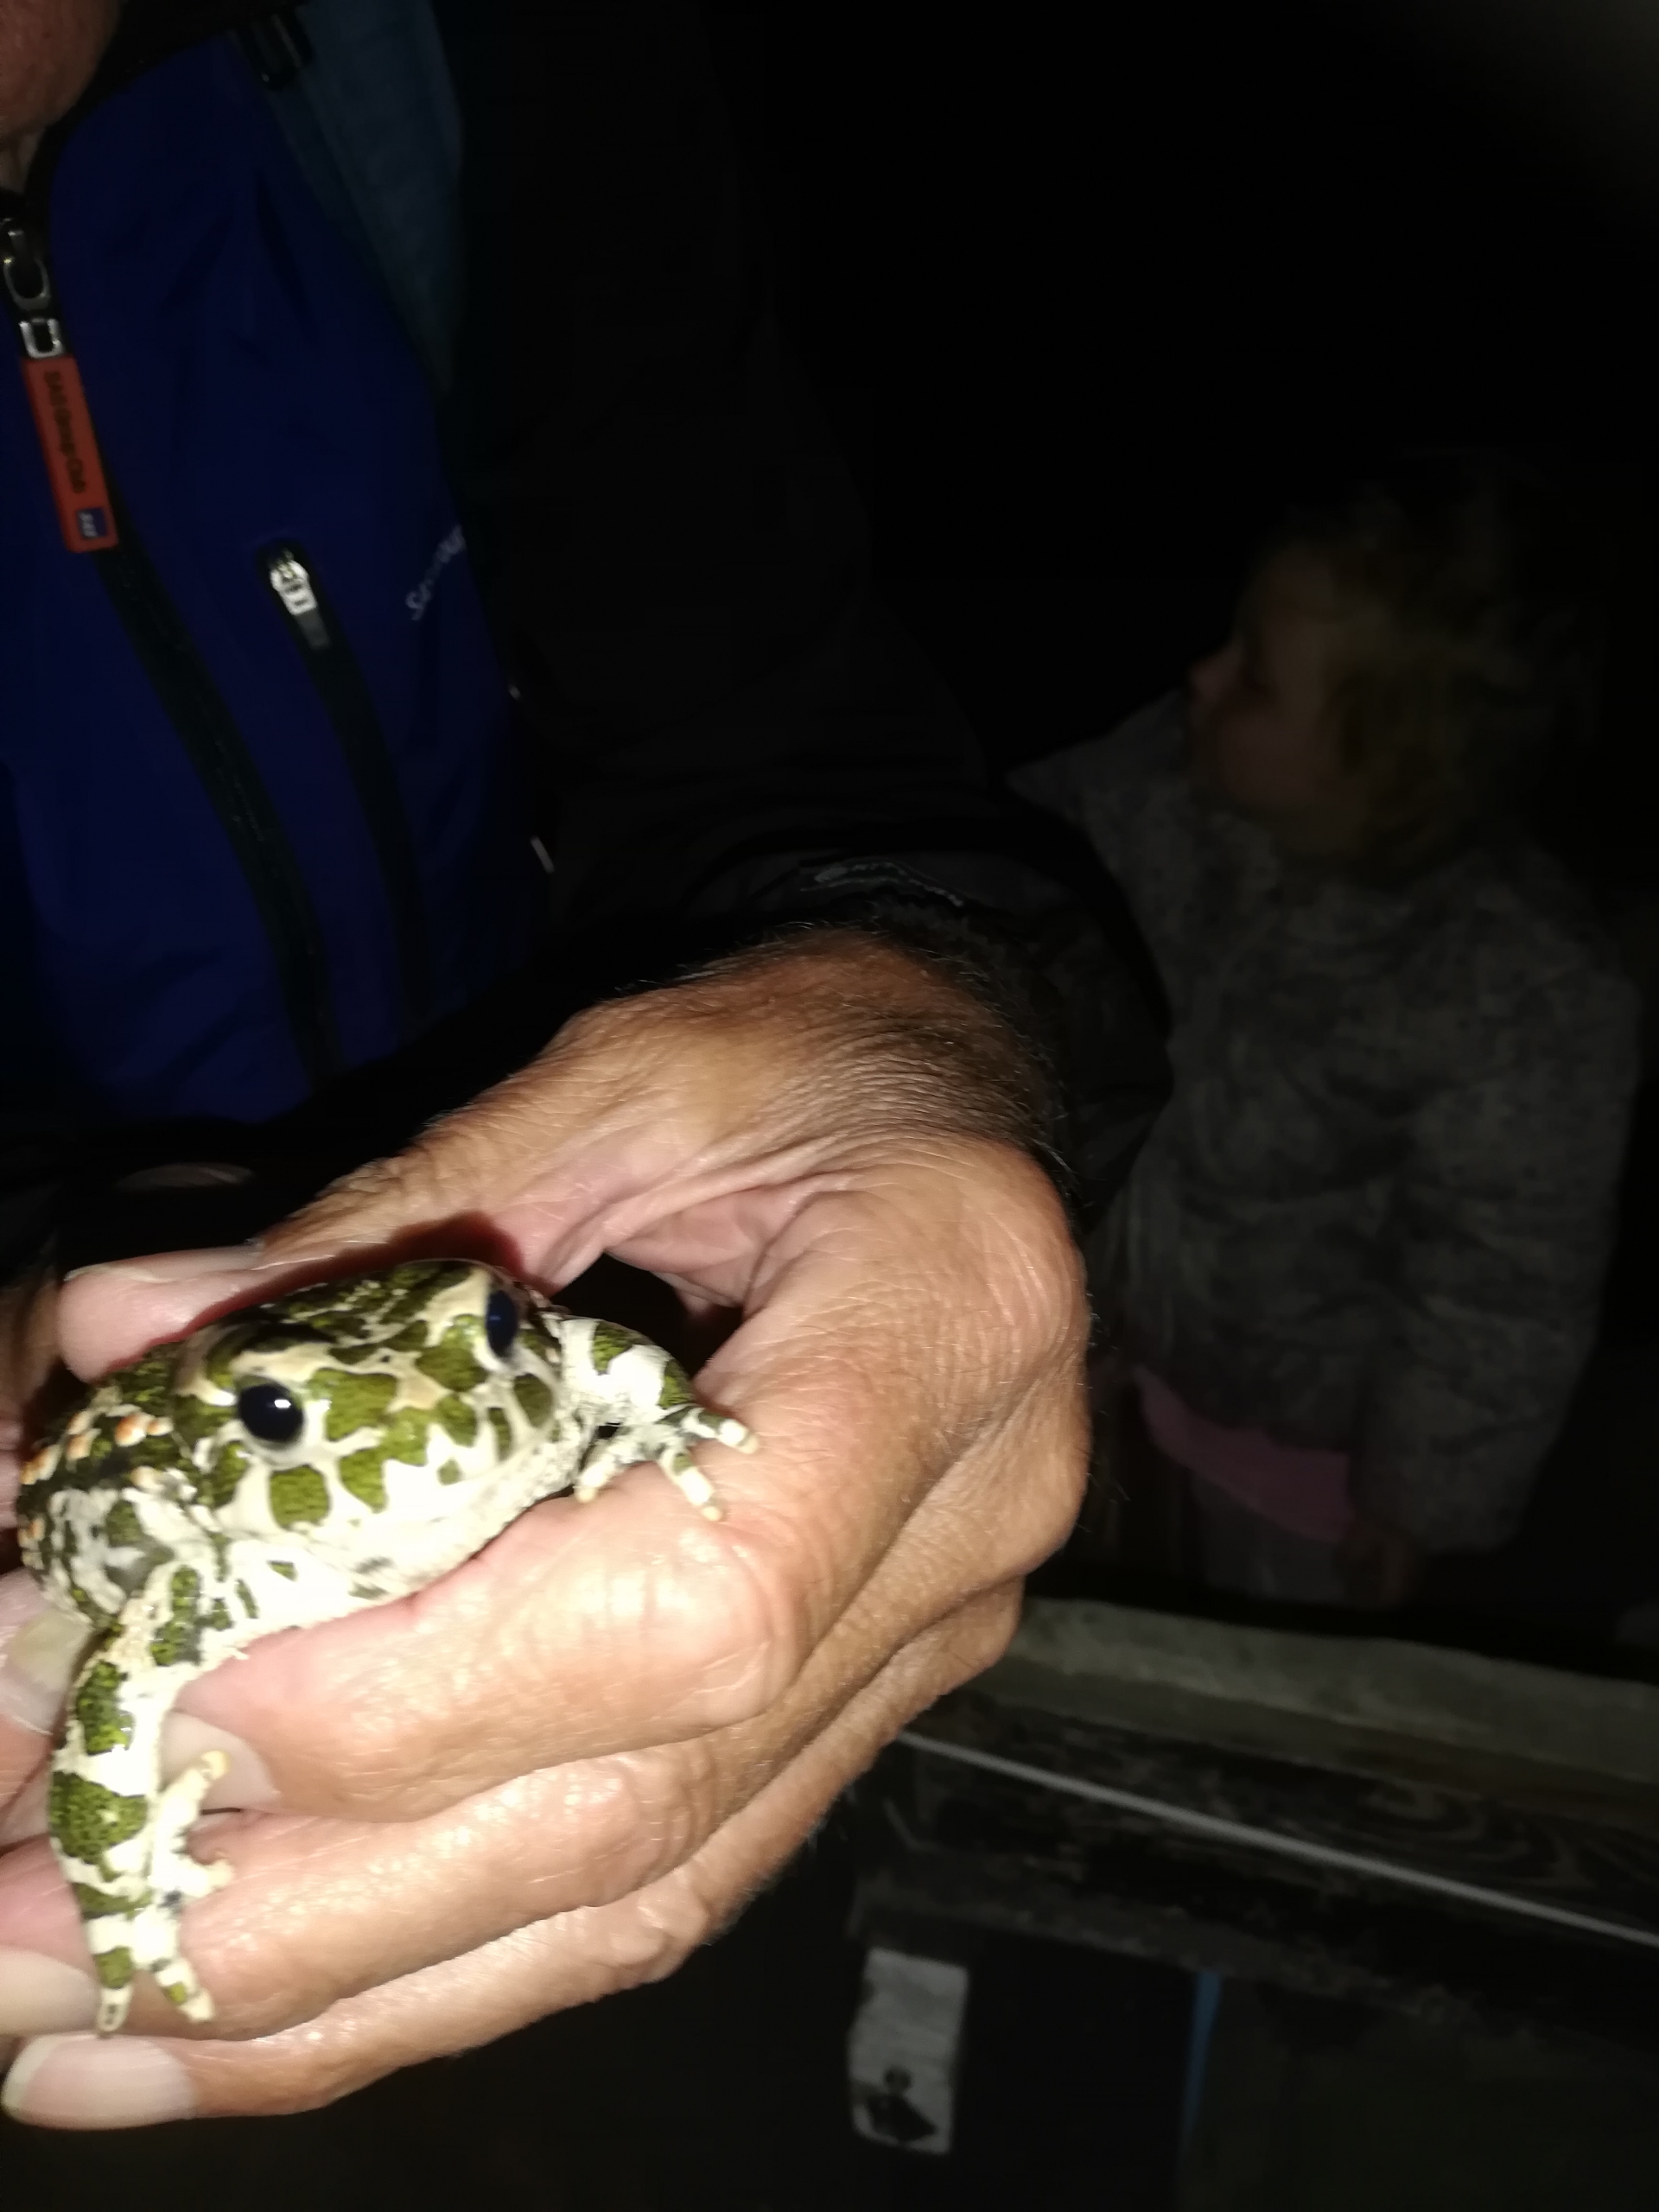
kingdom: Animalia
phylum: Chordata
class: Amphibia
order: Anura
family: Bufonidae
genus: Bufotes
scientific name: Bufotes viridis
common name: Grønbroget tudse
